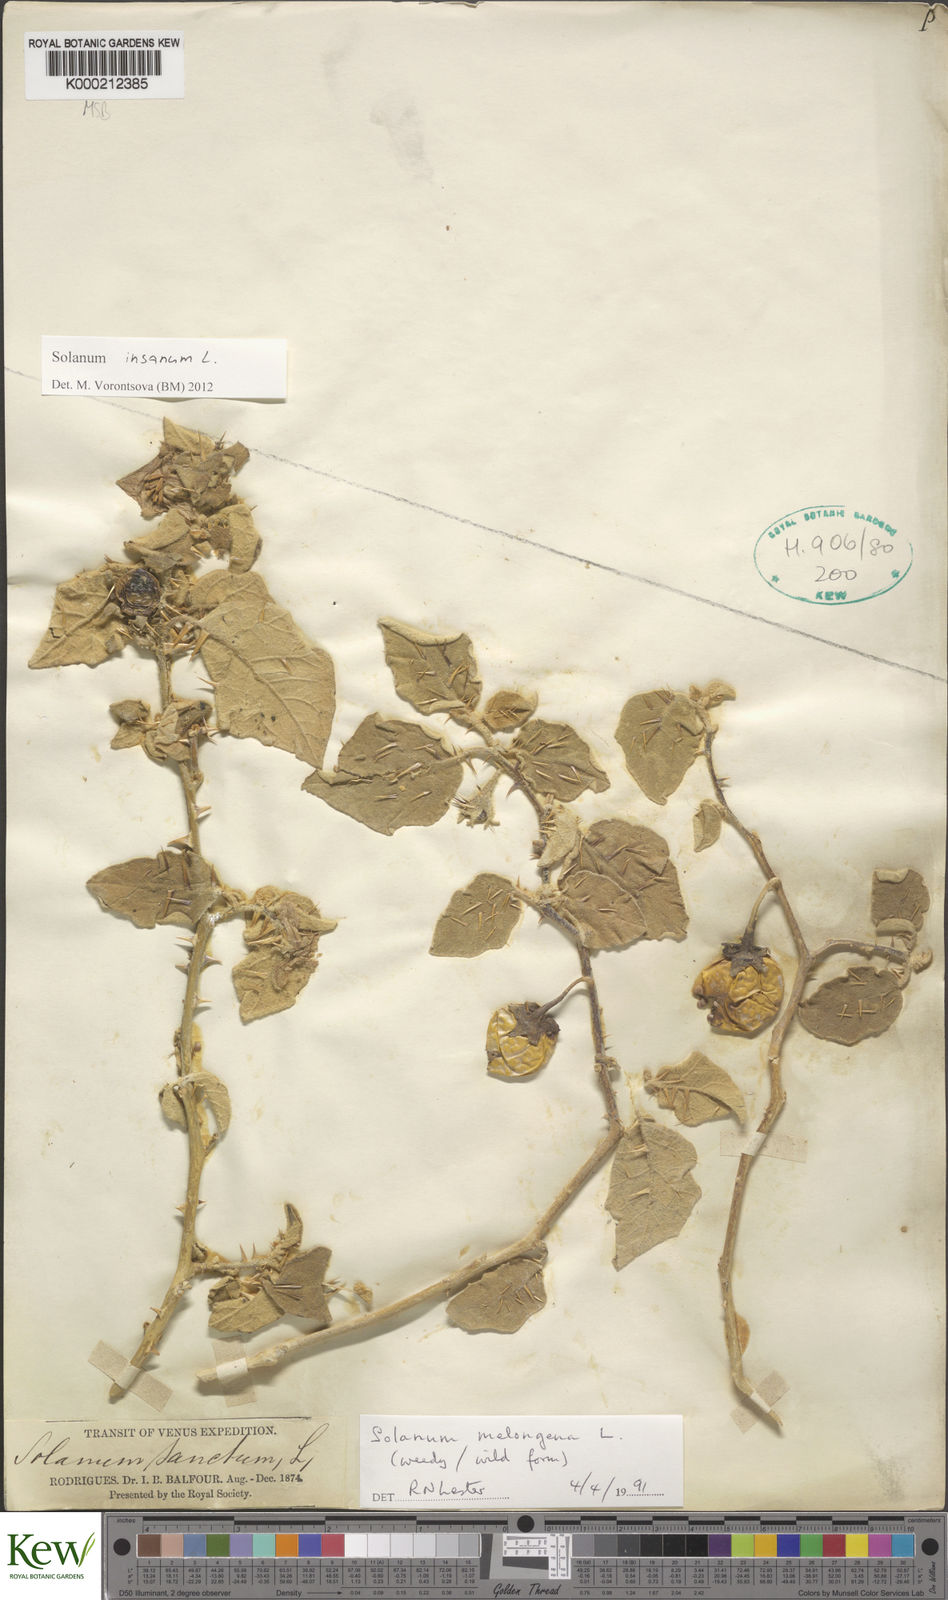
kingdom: Plantae
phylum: Tracheophyta
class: Magnoliopsida
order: Solanales
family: Solanaceae
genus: Solanum
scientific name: Solanum melongena
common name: Eggplant
